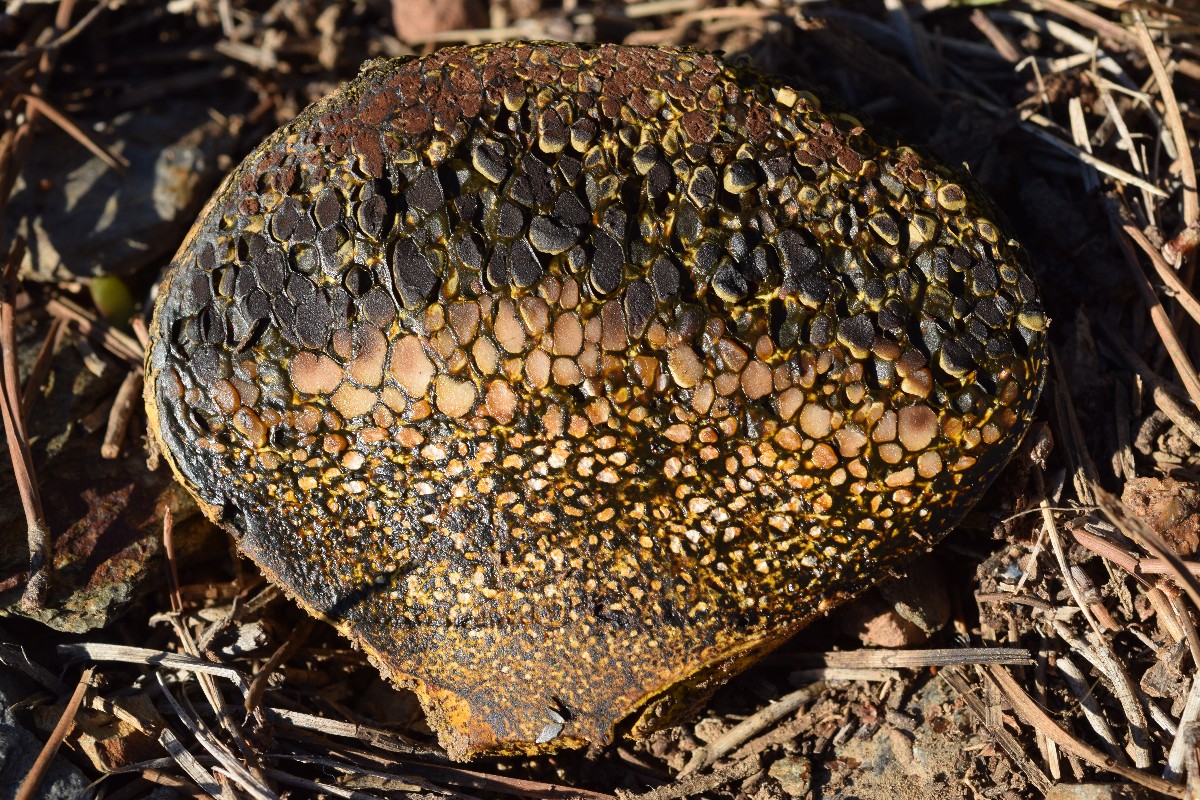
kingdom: Fungi
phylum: Basidiomycota
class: Agaricomycetes
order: Boletales
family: Sclerodermataceae
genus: Pisolithus
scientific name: Pisolithus
